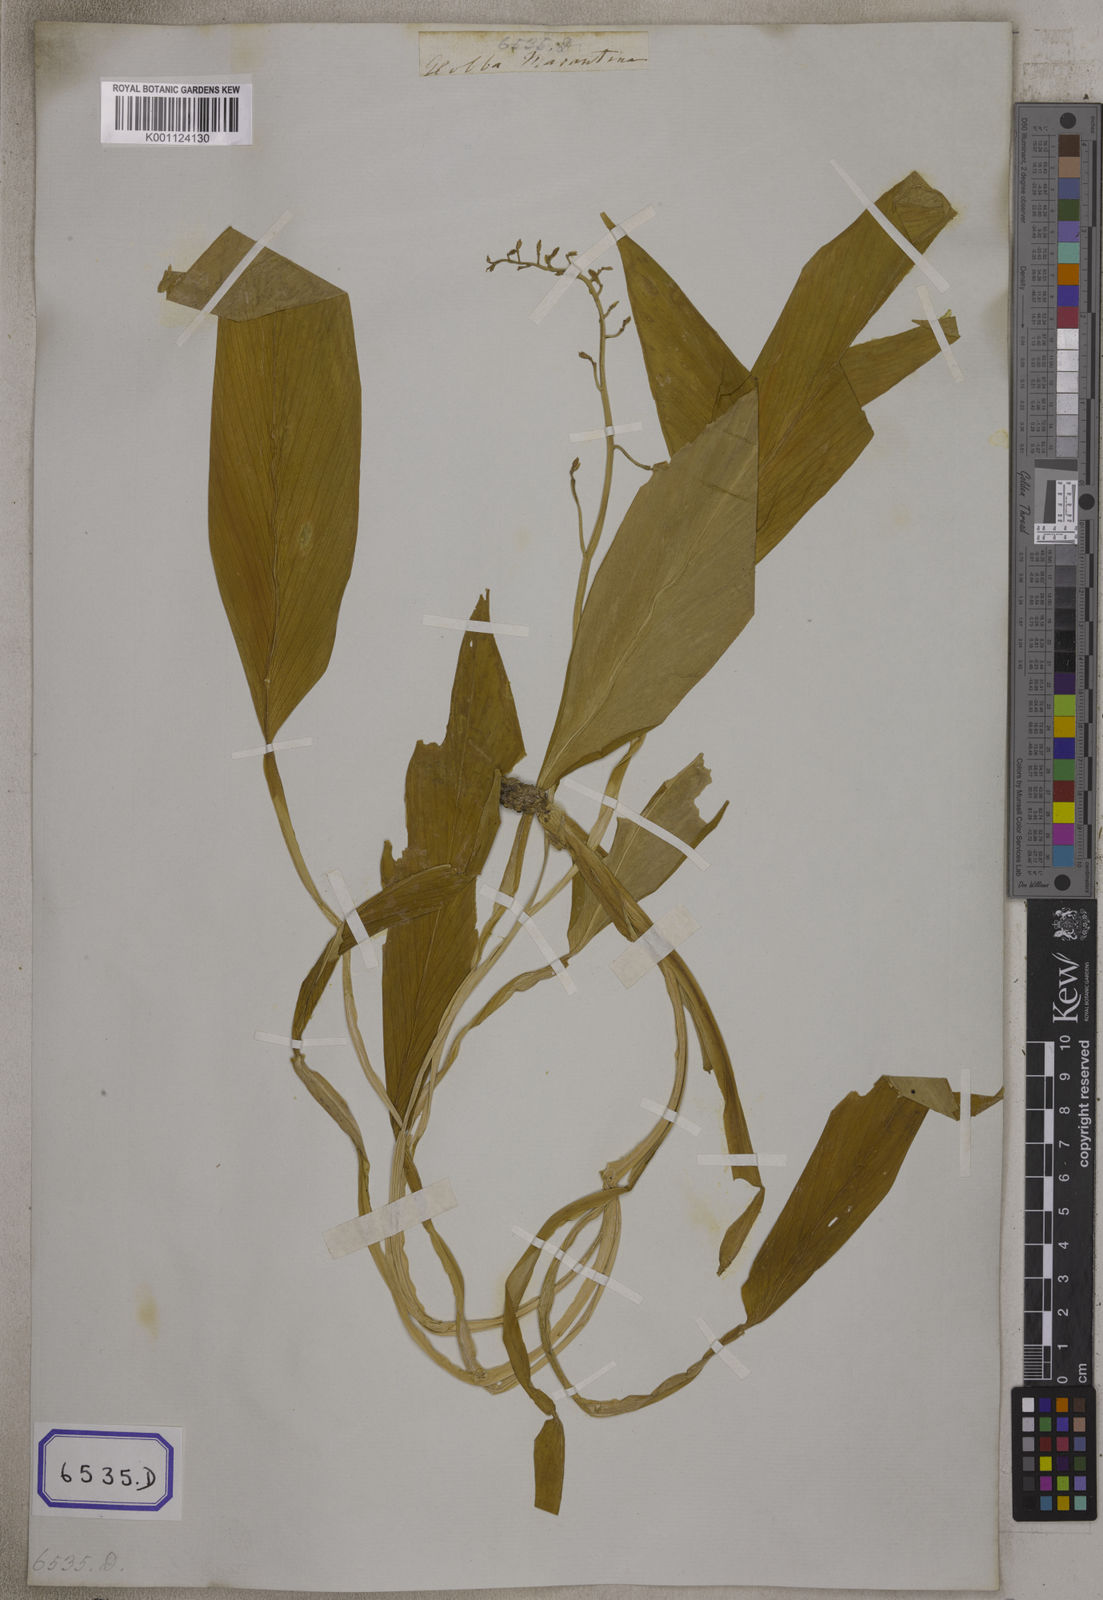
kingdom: Plantae
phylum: Tracheophyta
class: Liliopsida
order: Zingiberales
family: Zingiberaceae
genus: Globba
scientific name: Globba
